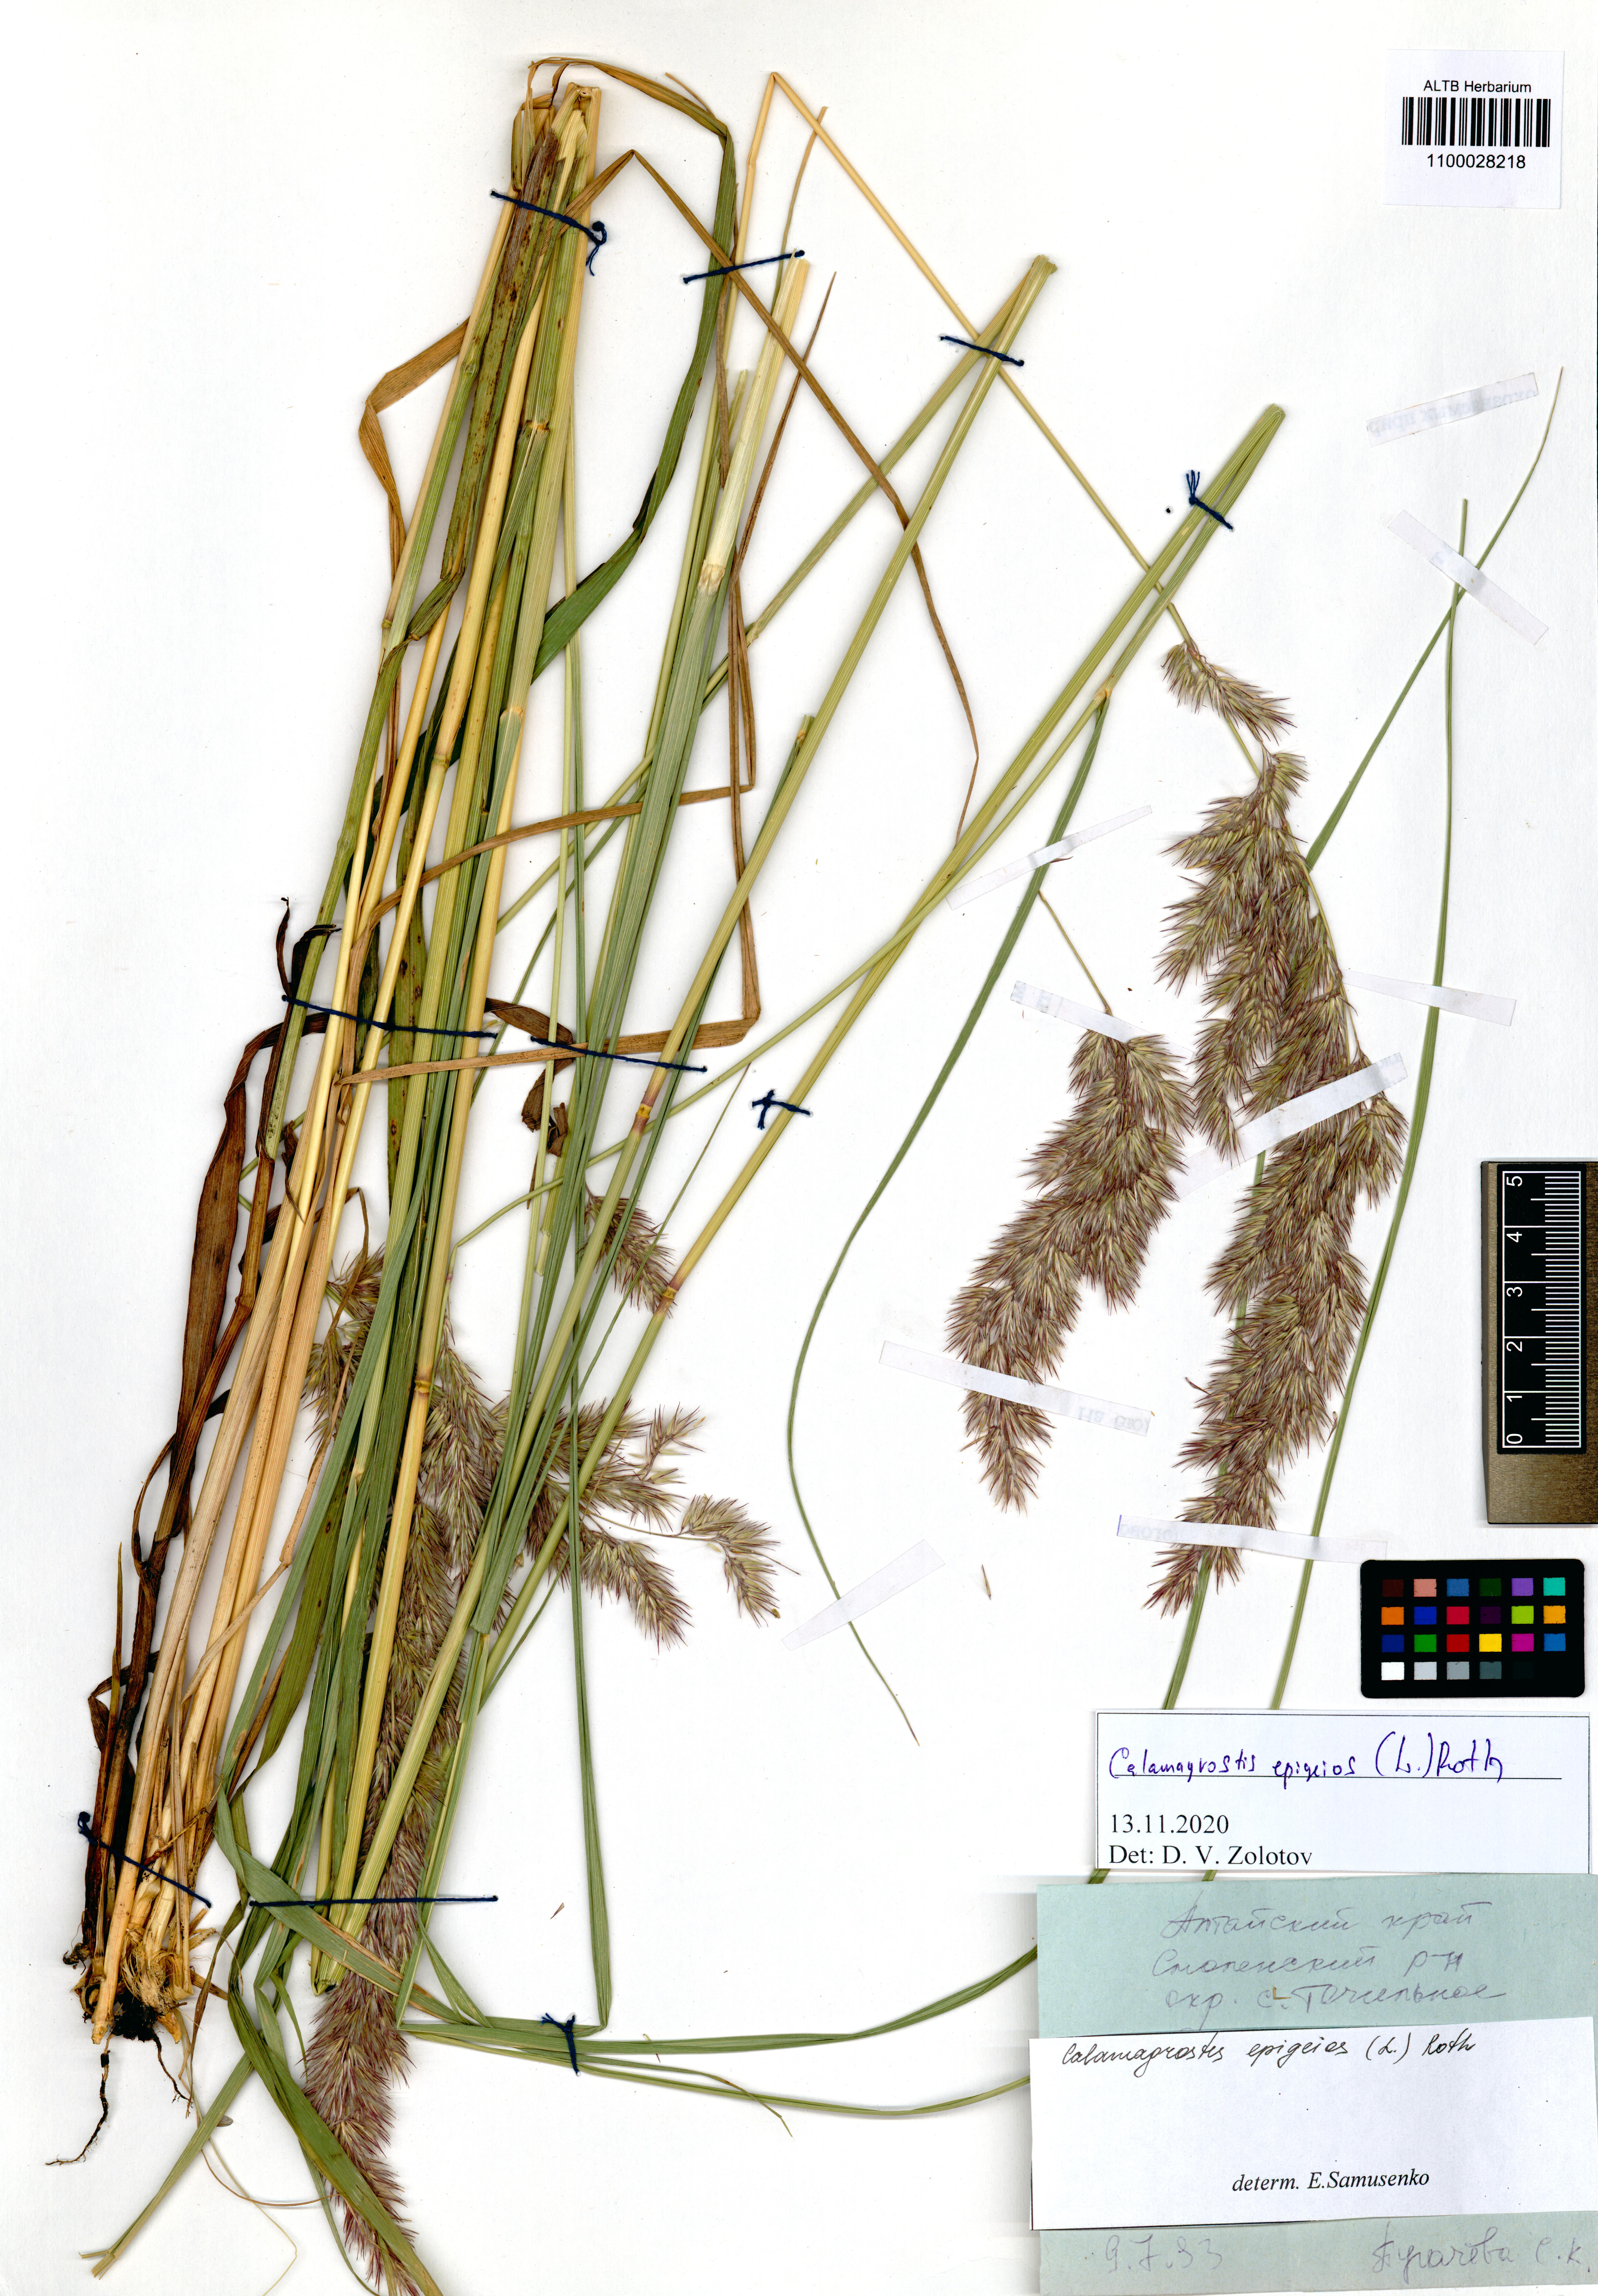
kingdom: Plantae
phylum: Tracheophyta
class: Liliopsida
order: Poales
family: Poaceae
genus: Calamagrostis
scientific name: Calamagrostis epigejos
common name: Wood small-reed
